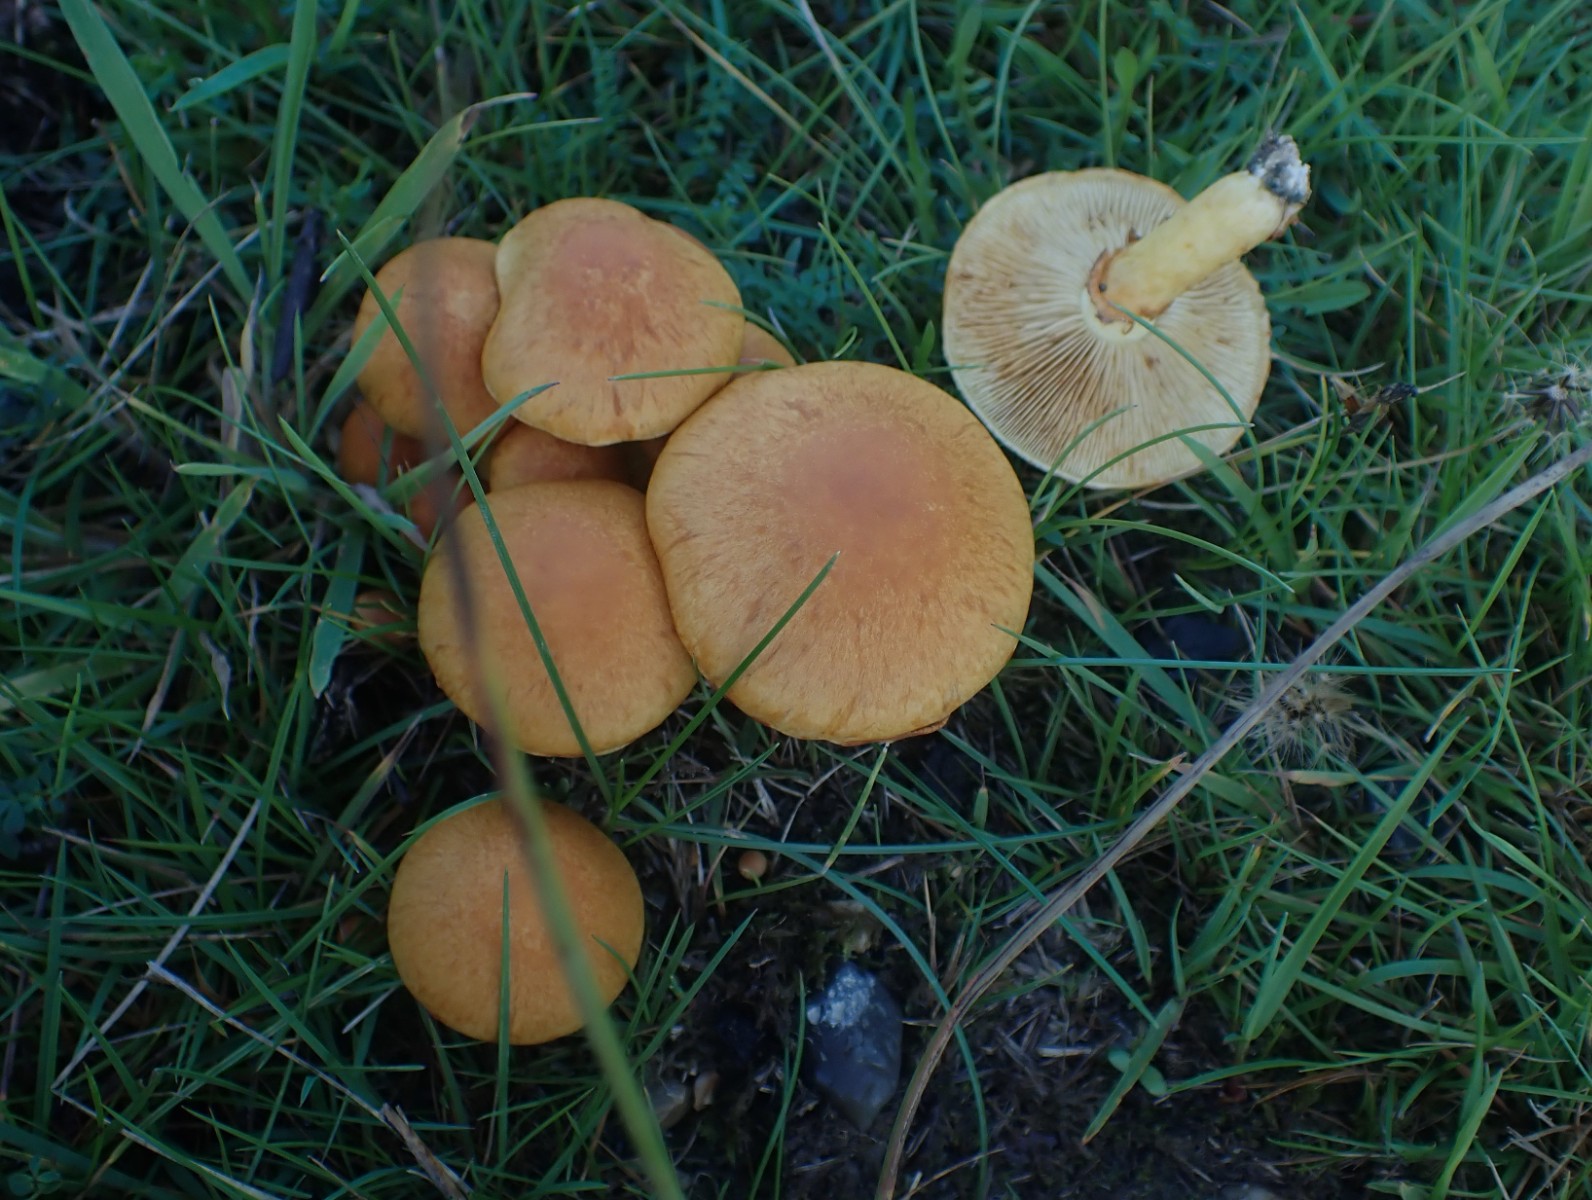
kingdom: Fungi
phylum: Basidiomycota
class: Agaricomycetes
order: Agaricales
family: Hymenogastraceae
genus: Gymnopilus
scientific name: Gymnopilus spectabilis
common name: fibret flammehat
